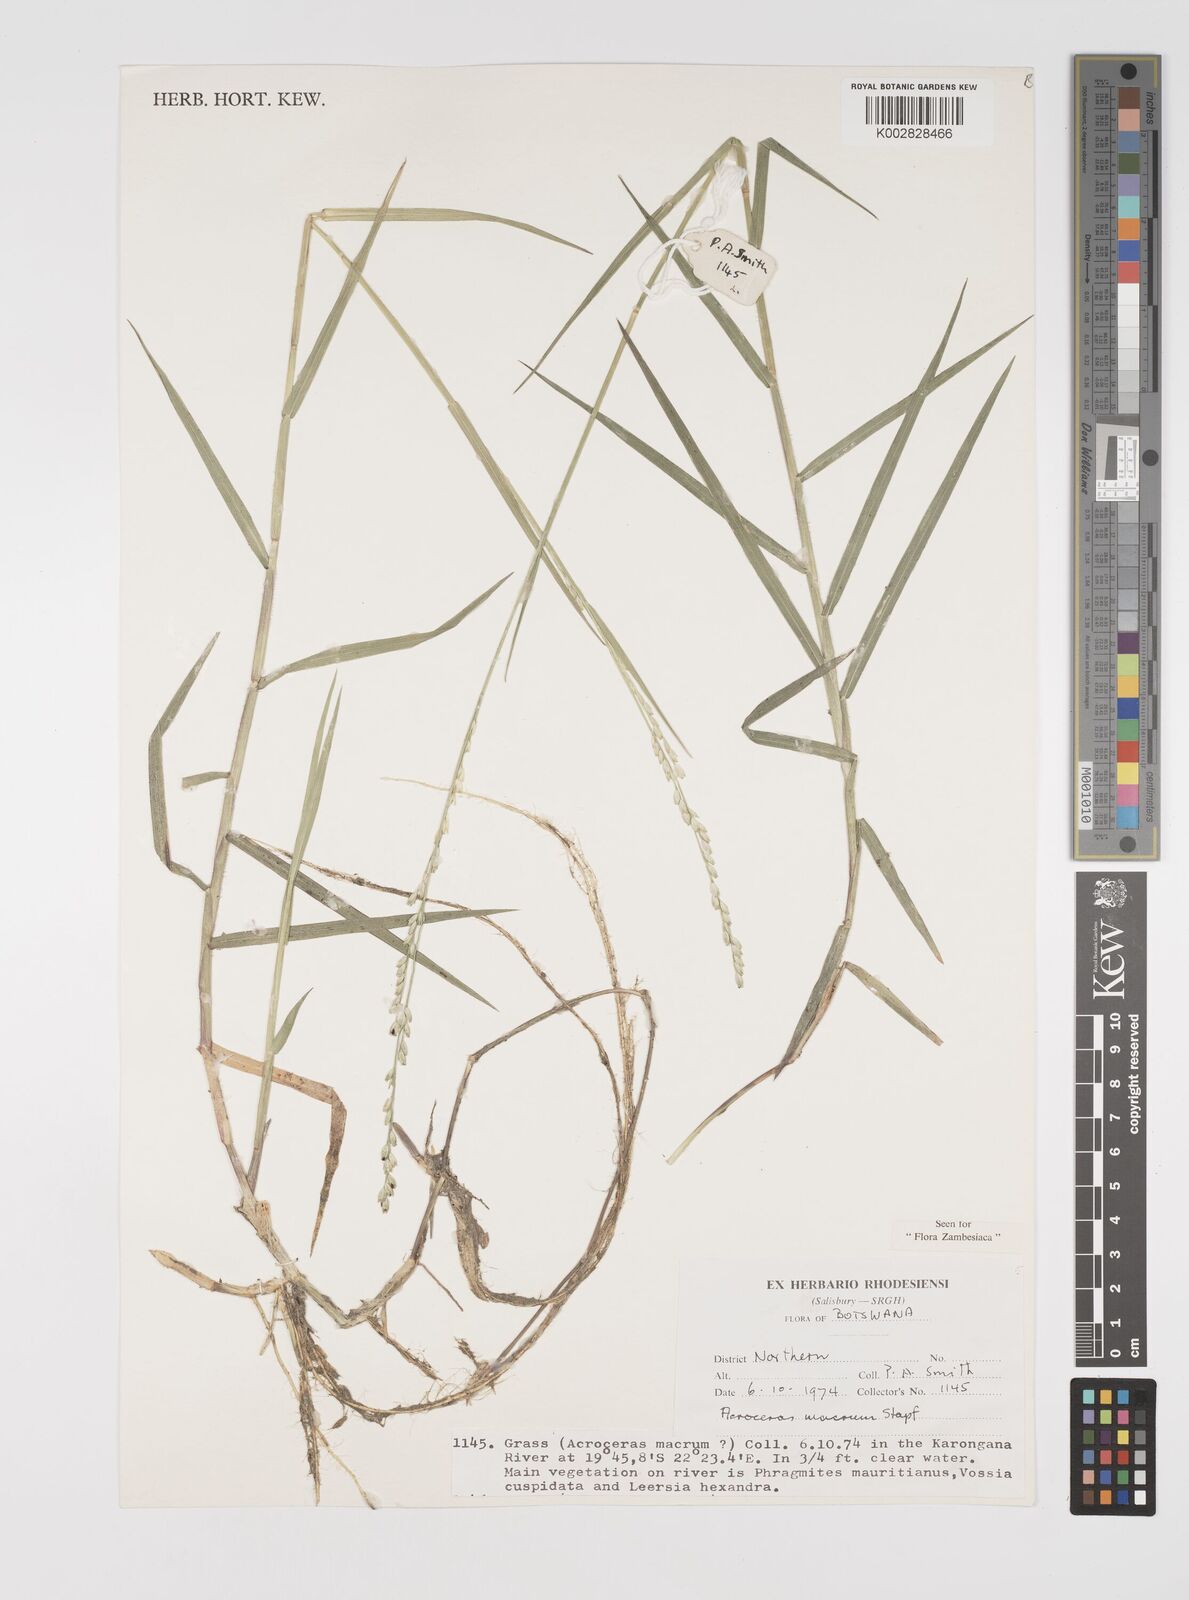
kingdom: Plantae
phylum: Tracheophyta
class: Liliopsida
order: Poales
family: Poaceae
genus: Acroceras
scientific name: Acroceras macrum
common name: Nyl grass
